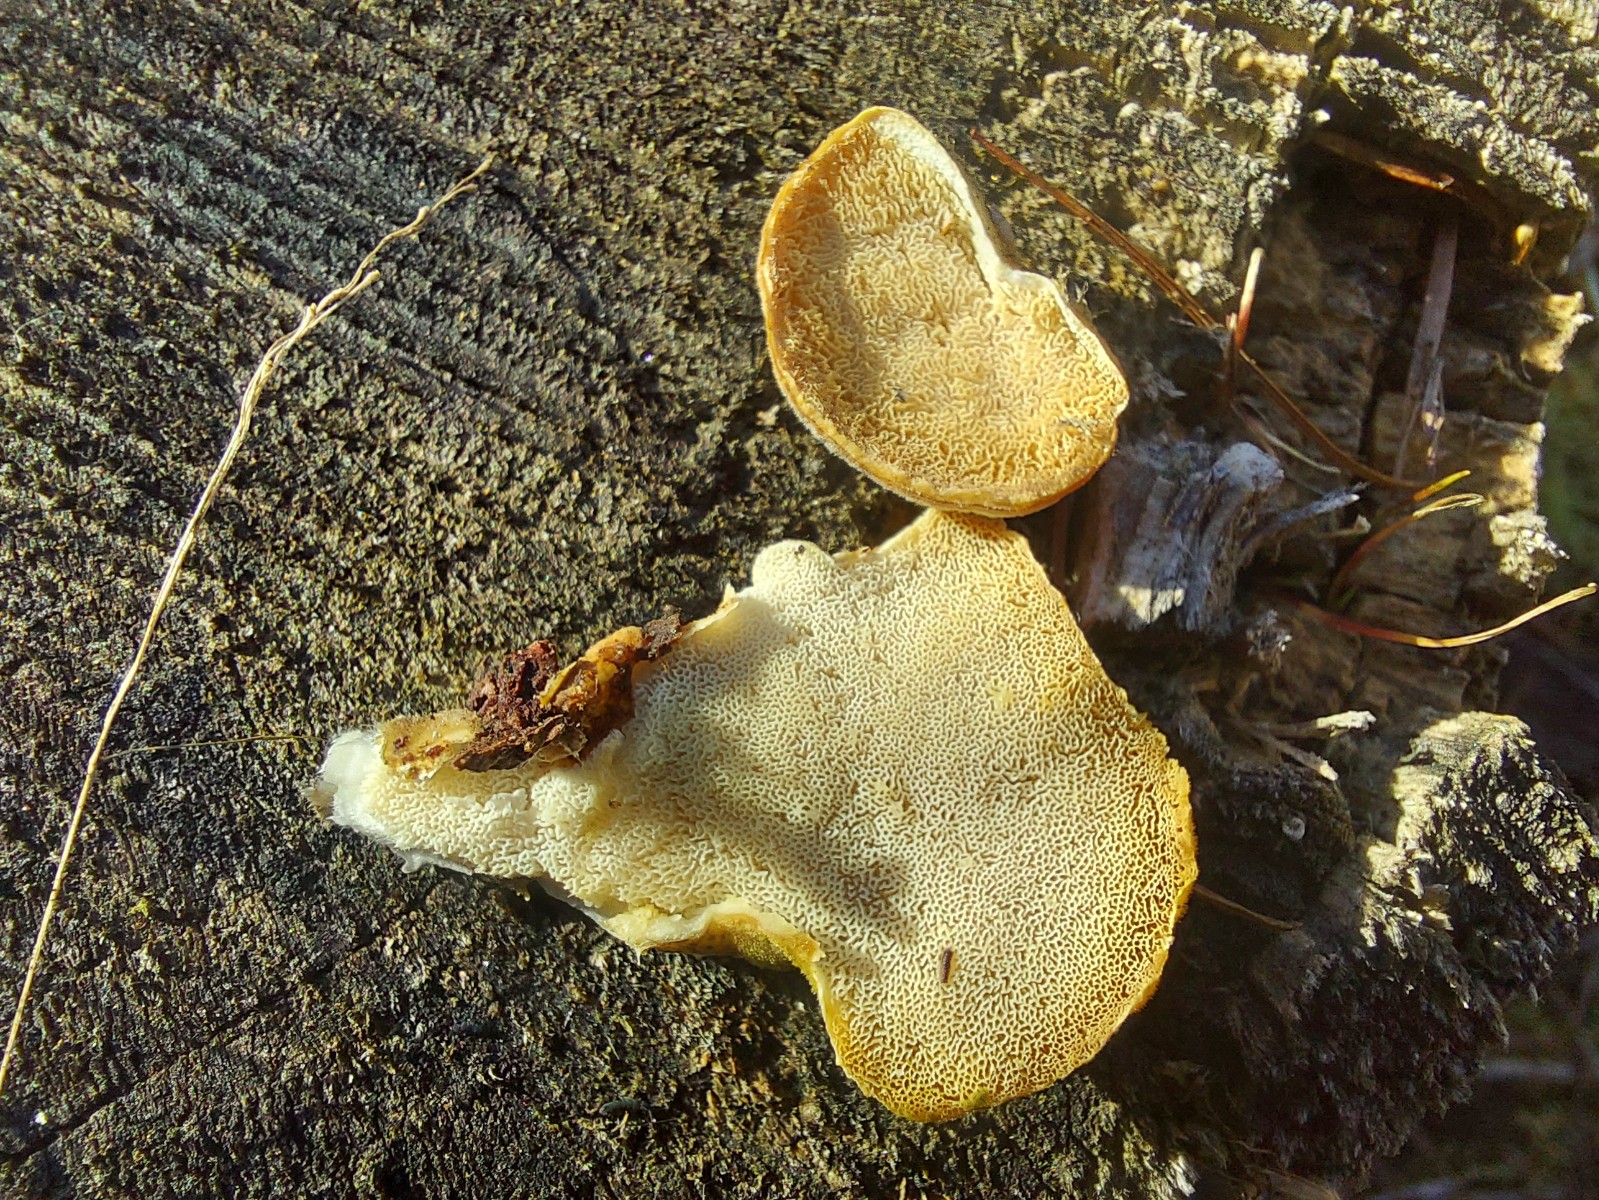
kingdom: Fungi
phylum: Basidiomycota
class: Agaricomycetes
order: Polyporales
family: Polyporaceae
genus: Trametes
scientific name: Trametes versicolor
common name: broget læderporesvamp
